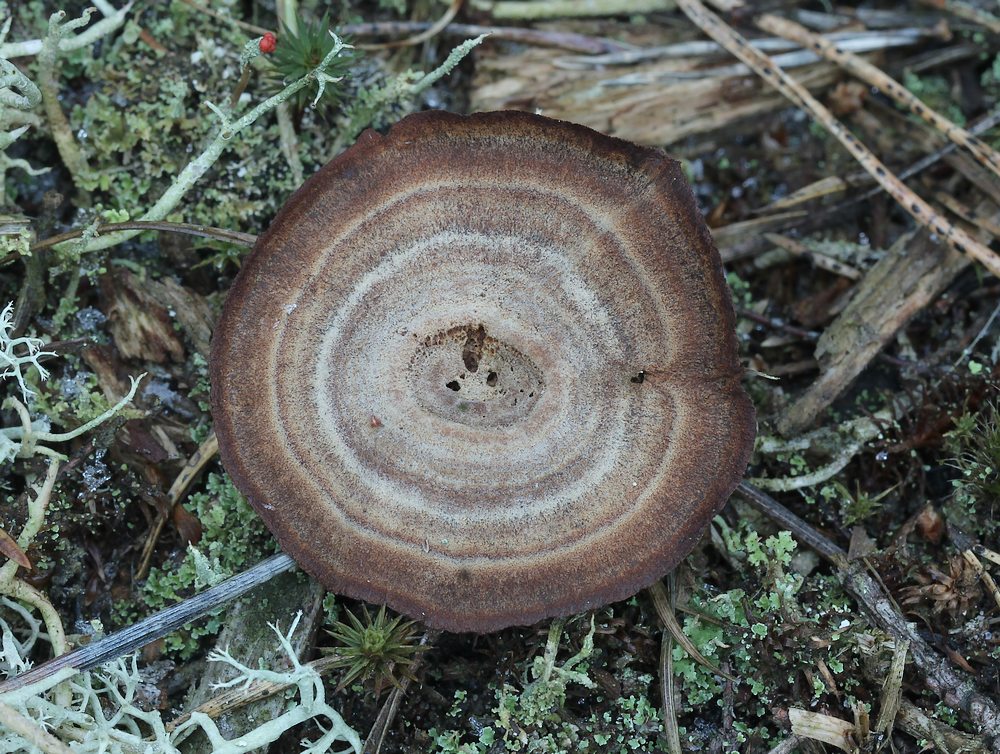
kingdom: Fungi
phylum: Basidiomycota
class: Agaricomycetes
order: Hymenochaetales
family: Hymenochaetaceae
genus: Coltricia
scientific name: Coltricia perennis
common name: almindelig sandporesvamp
